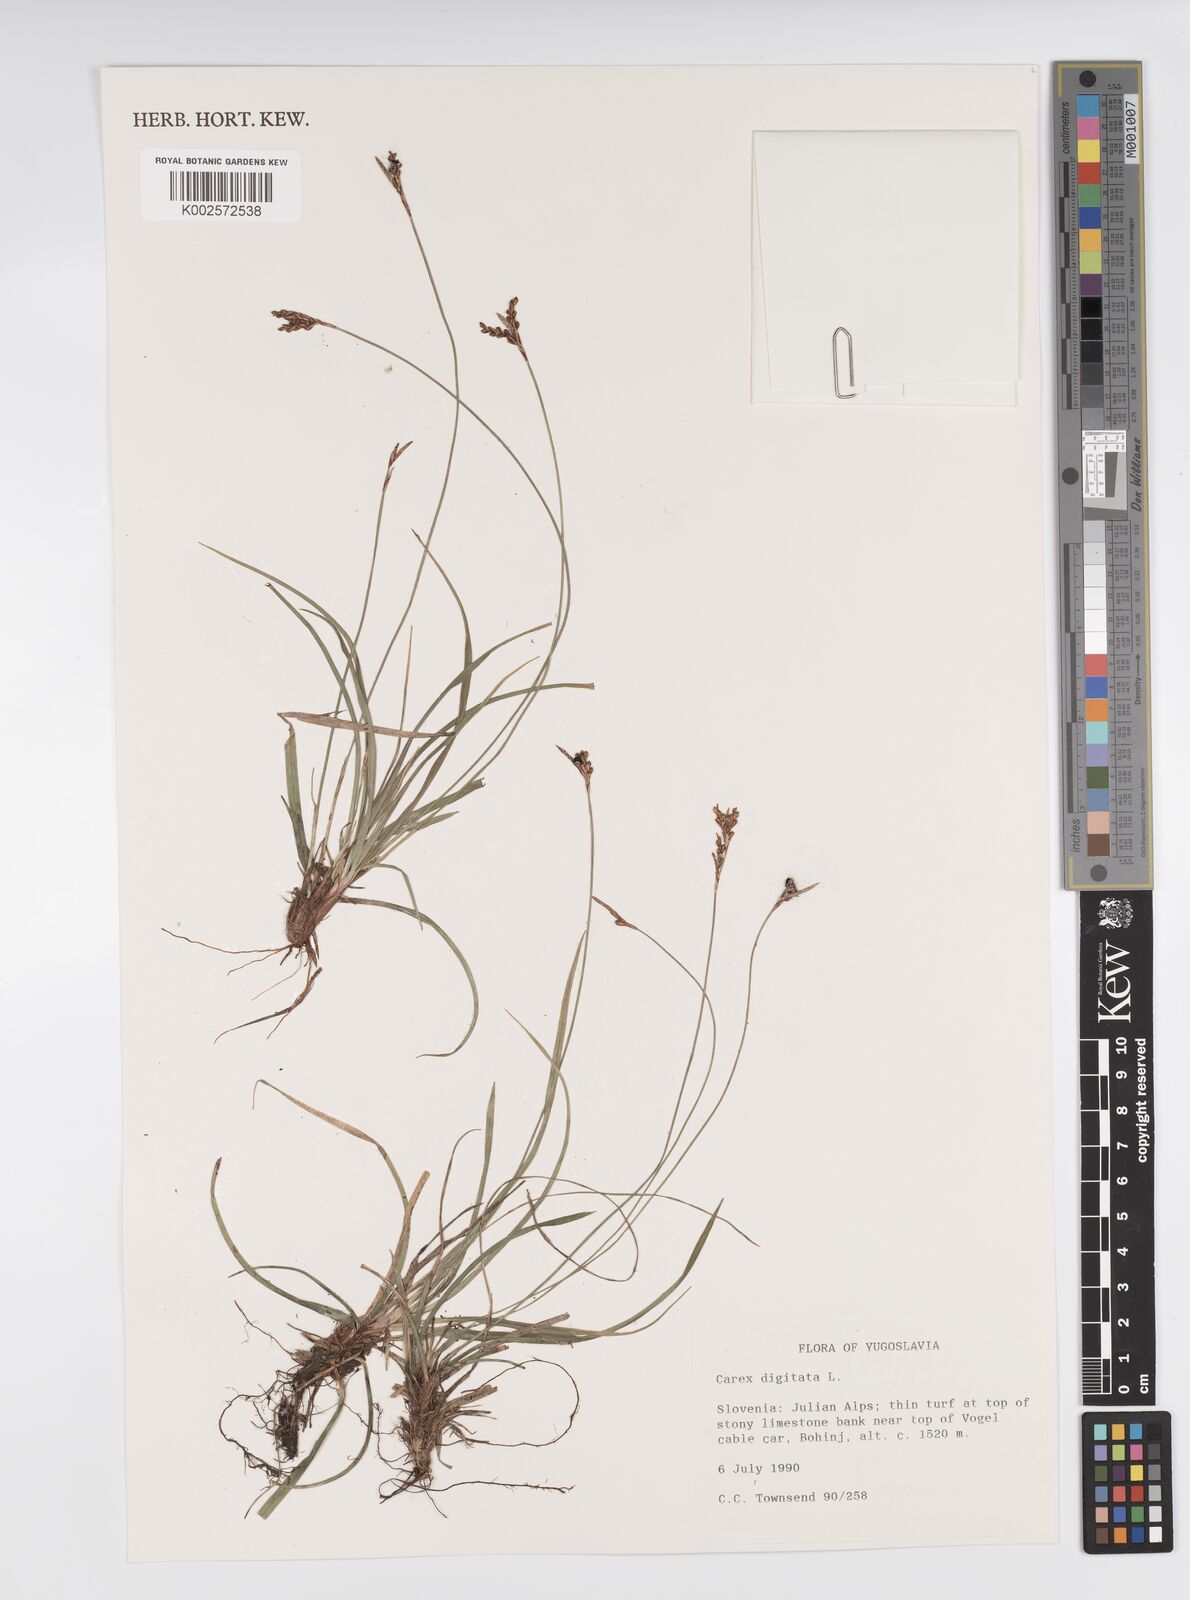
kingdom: Plantae
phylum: Tracheophyta
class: Liliopsida
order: Poales
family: Cyperaceae
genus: Carex
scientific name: Carex digitata
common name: Fingered sedge
